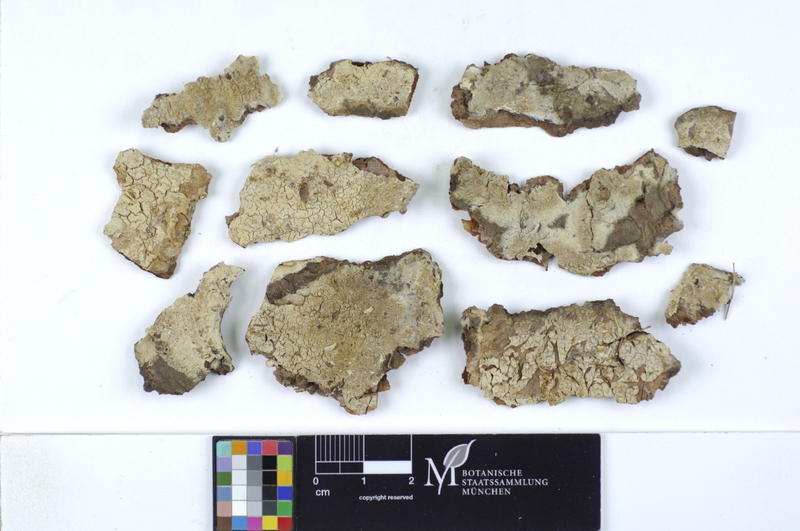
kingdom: Plantae
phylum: Tracheophyta
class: Magnoliopsida
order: Fagales
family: Fagaceae
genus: Quercus
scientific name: Quercus
